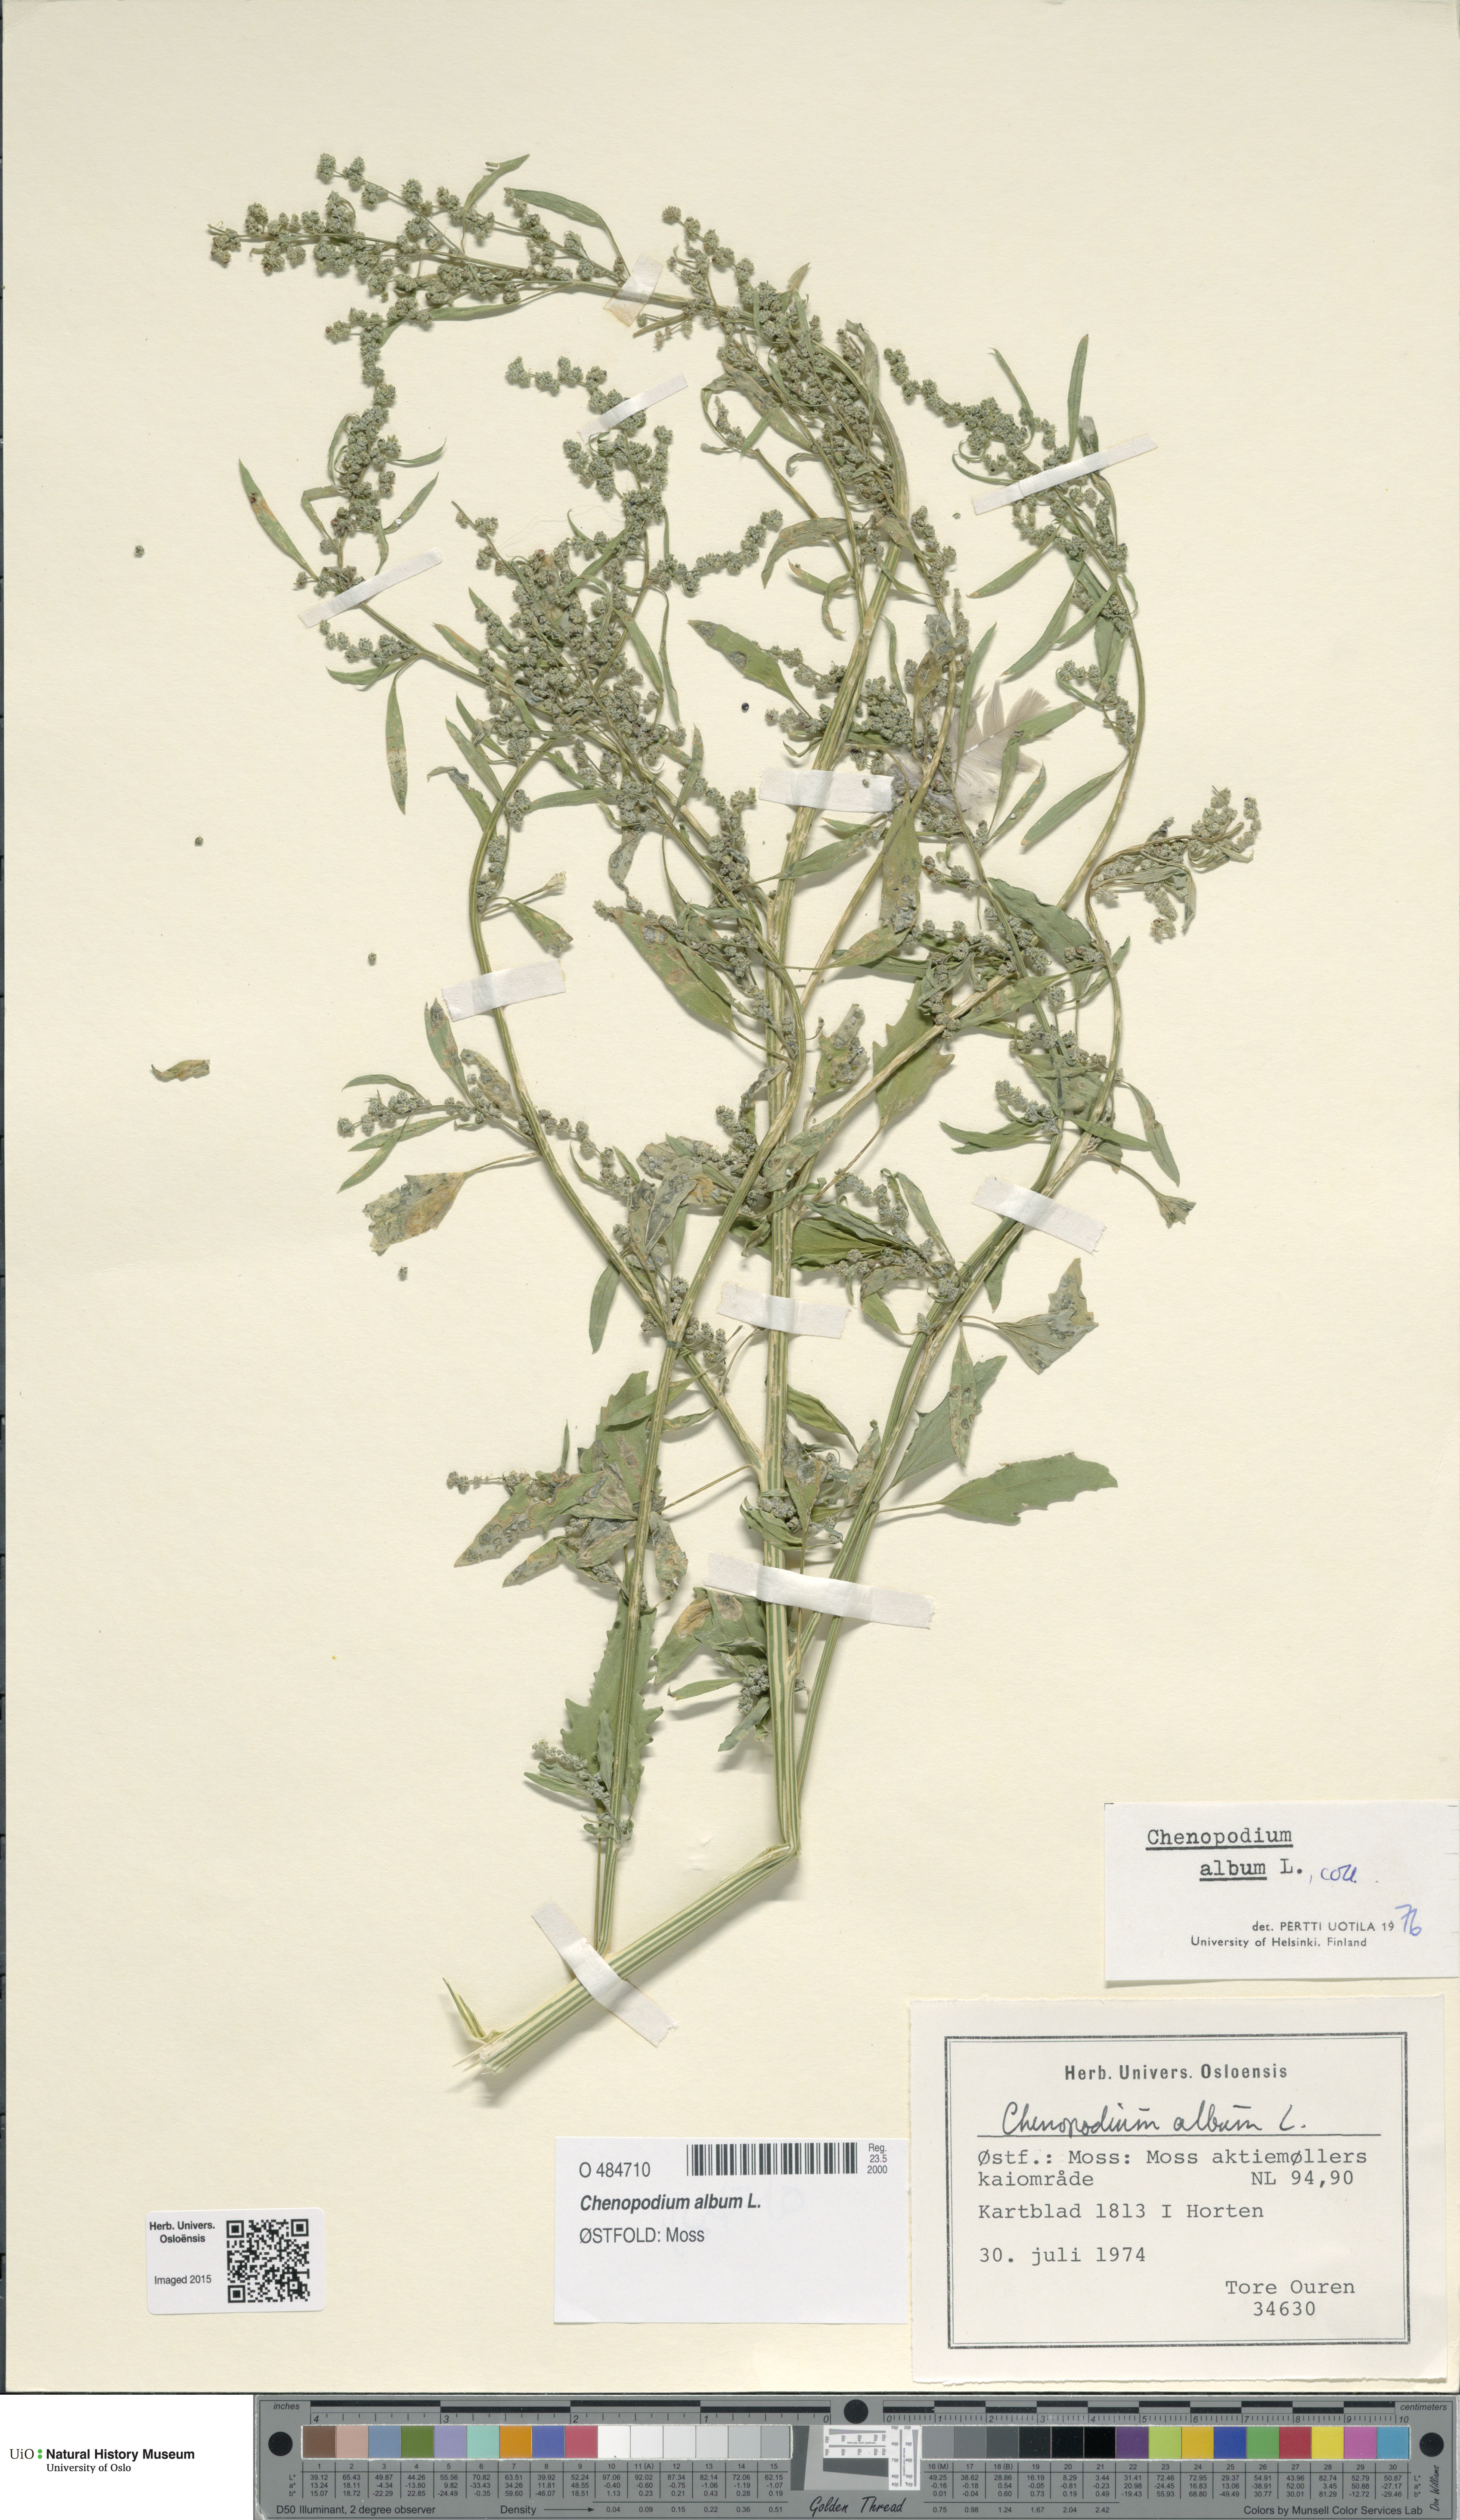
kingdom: Plantae
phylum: Tracheophyta
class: Magnoliopsida
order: Caryophyllales
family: Amaranthaceae
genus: Chenopodium
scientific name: Chenopodium album
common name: Fat-hen
